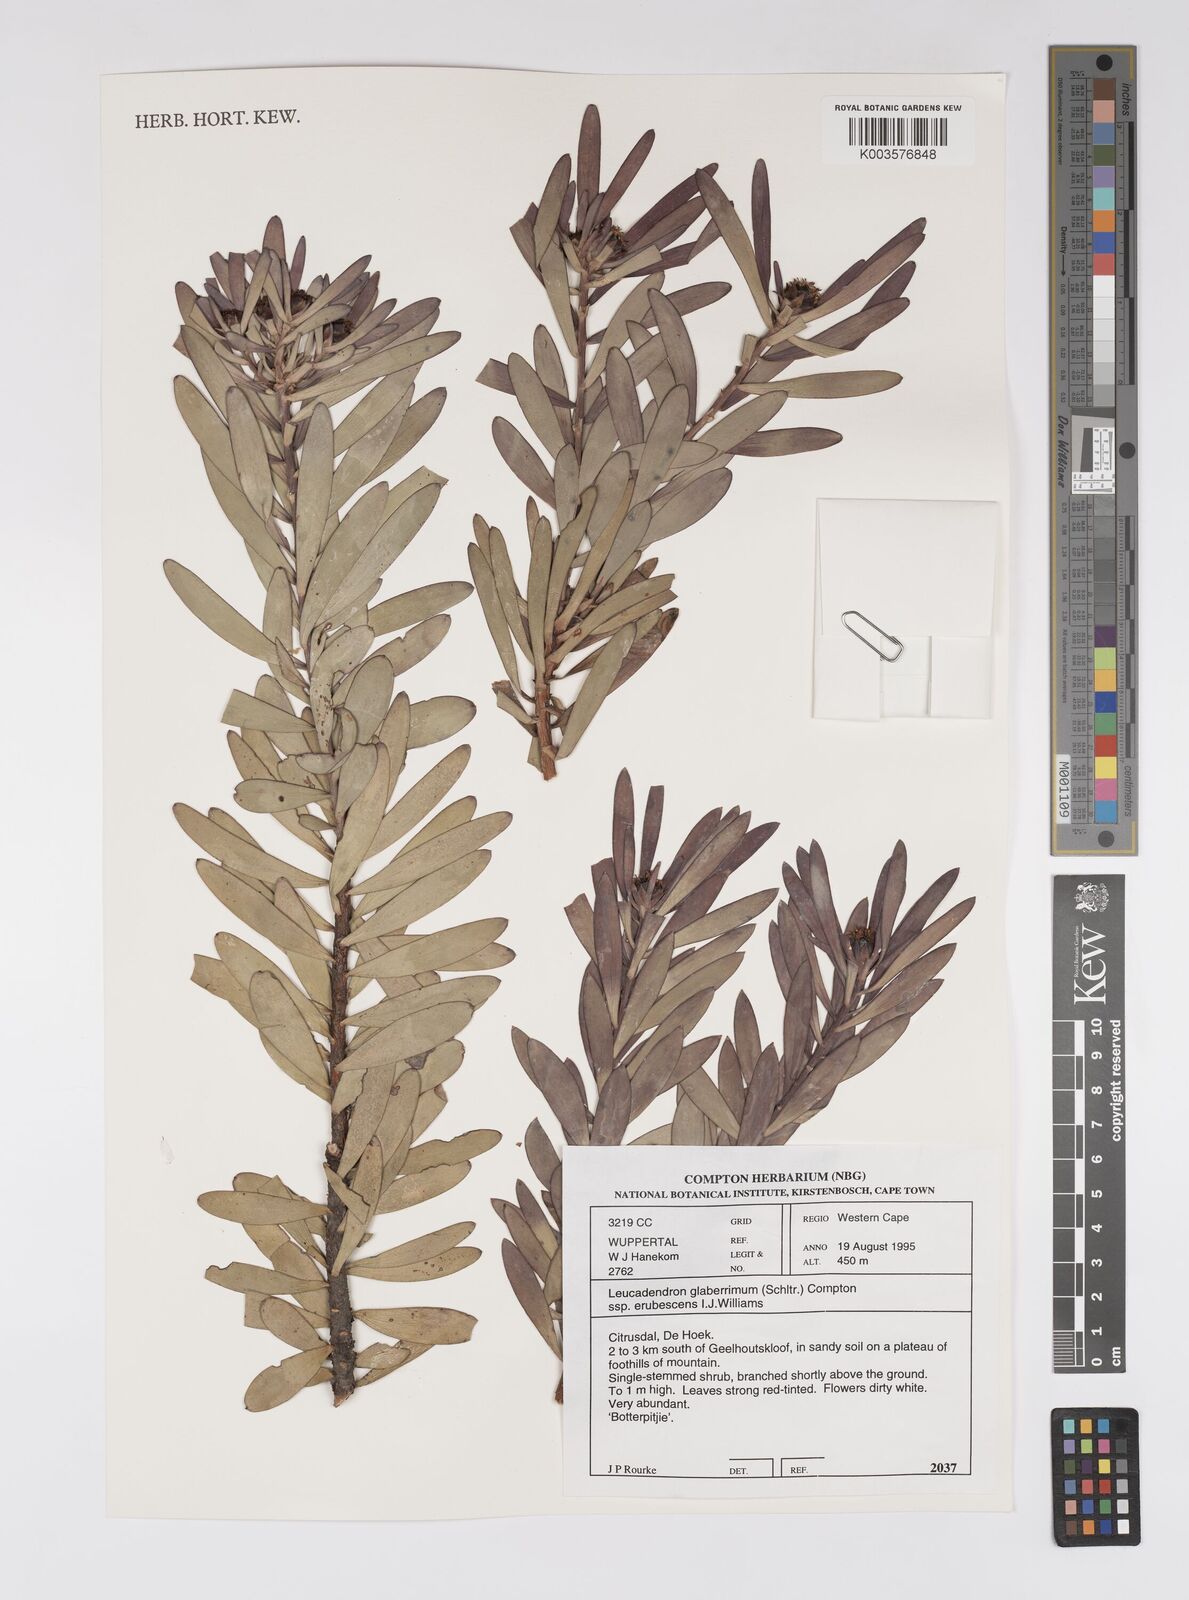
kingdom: Plantae
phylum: Tracheophyta
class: Magnoliopsida
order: Proteales
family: Proteaceae
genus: Leucadendron
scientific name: Leucadendron glaberrimum
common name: Common oily conebush
